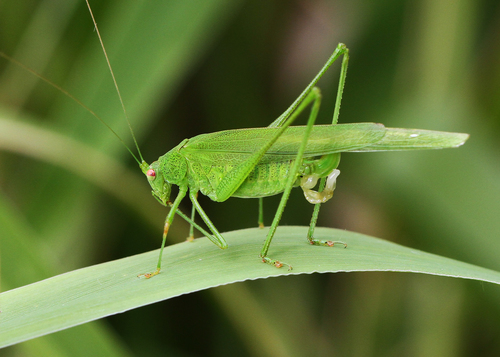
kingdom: Animalia
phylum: Arthropoda
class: Insecta
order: Orthoptera
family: Tettigoniidae
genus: Phaneroptera
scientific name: Phaneroptera nana
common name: Southern sickle bush-cricket
